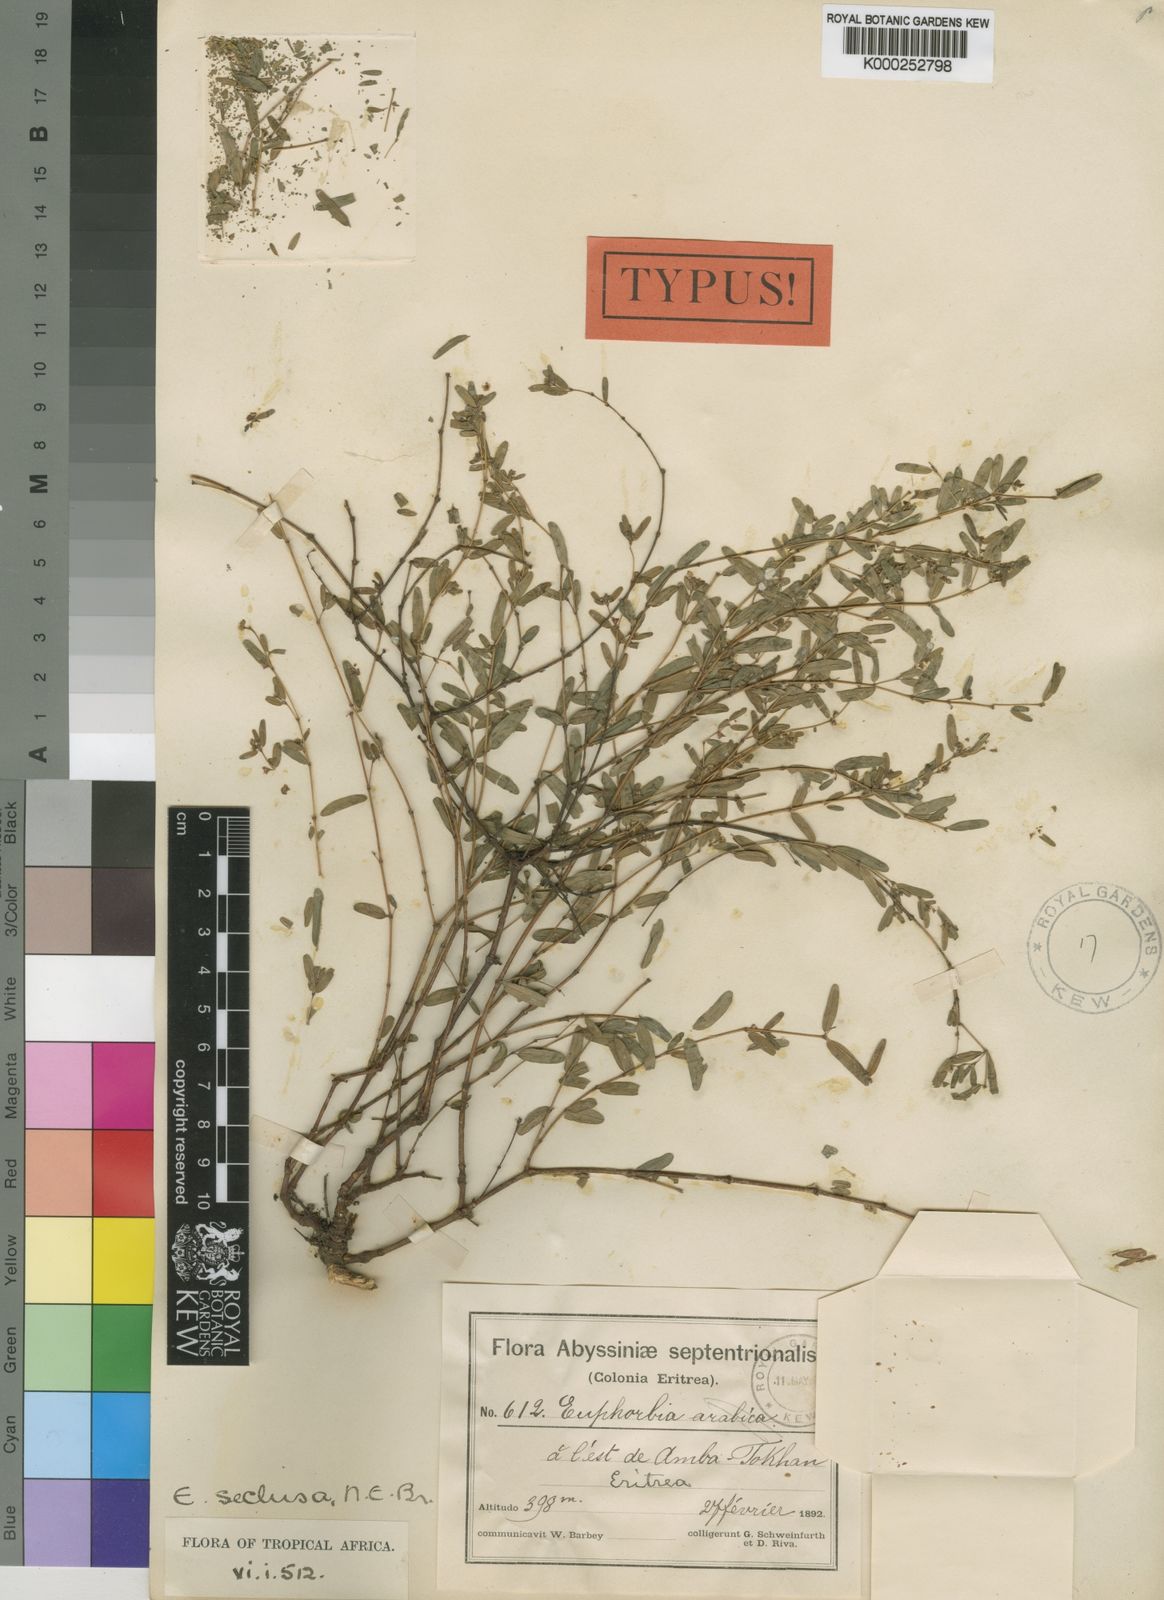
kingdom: Plantae
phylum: Tracheophyta
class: Magnoliopsida
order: Malpighiales
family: Euphorbiaceae
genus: Euphorbia
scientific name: Euphorbia
